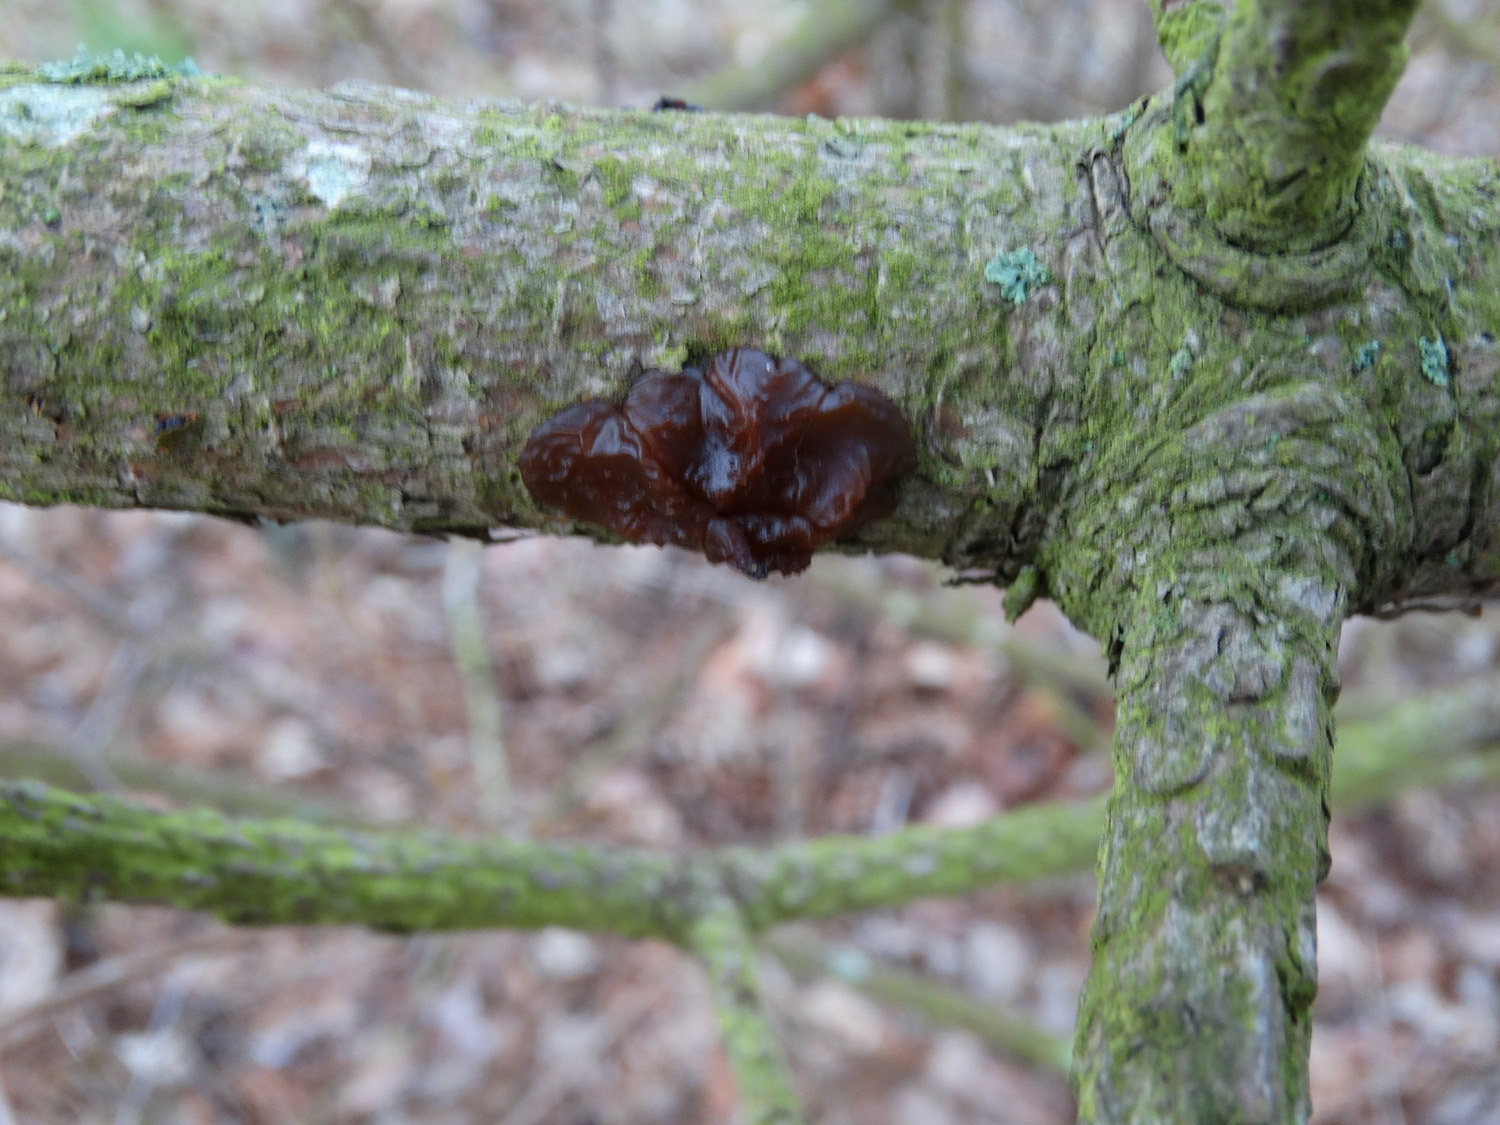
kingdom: Fungi
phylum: Basidiomycota
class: Agaricomycetes
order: Auriculariales
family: Auriculariaceae
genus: Exidia
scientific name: Exidia saccharina
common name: kandis-bævretop
